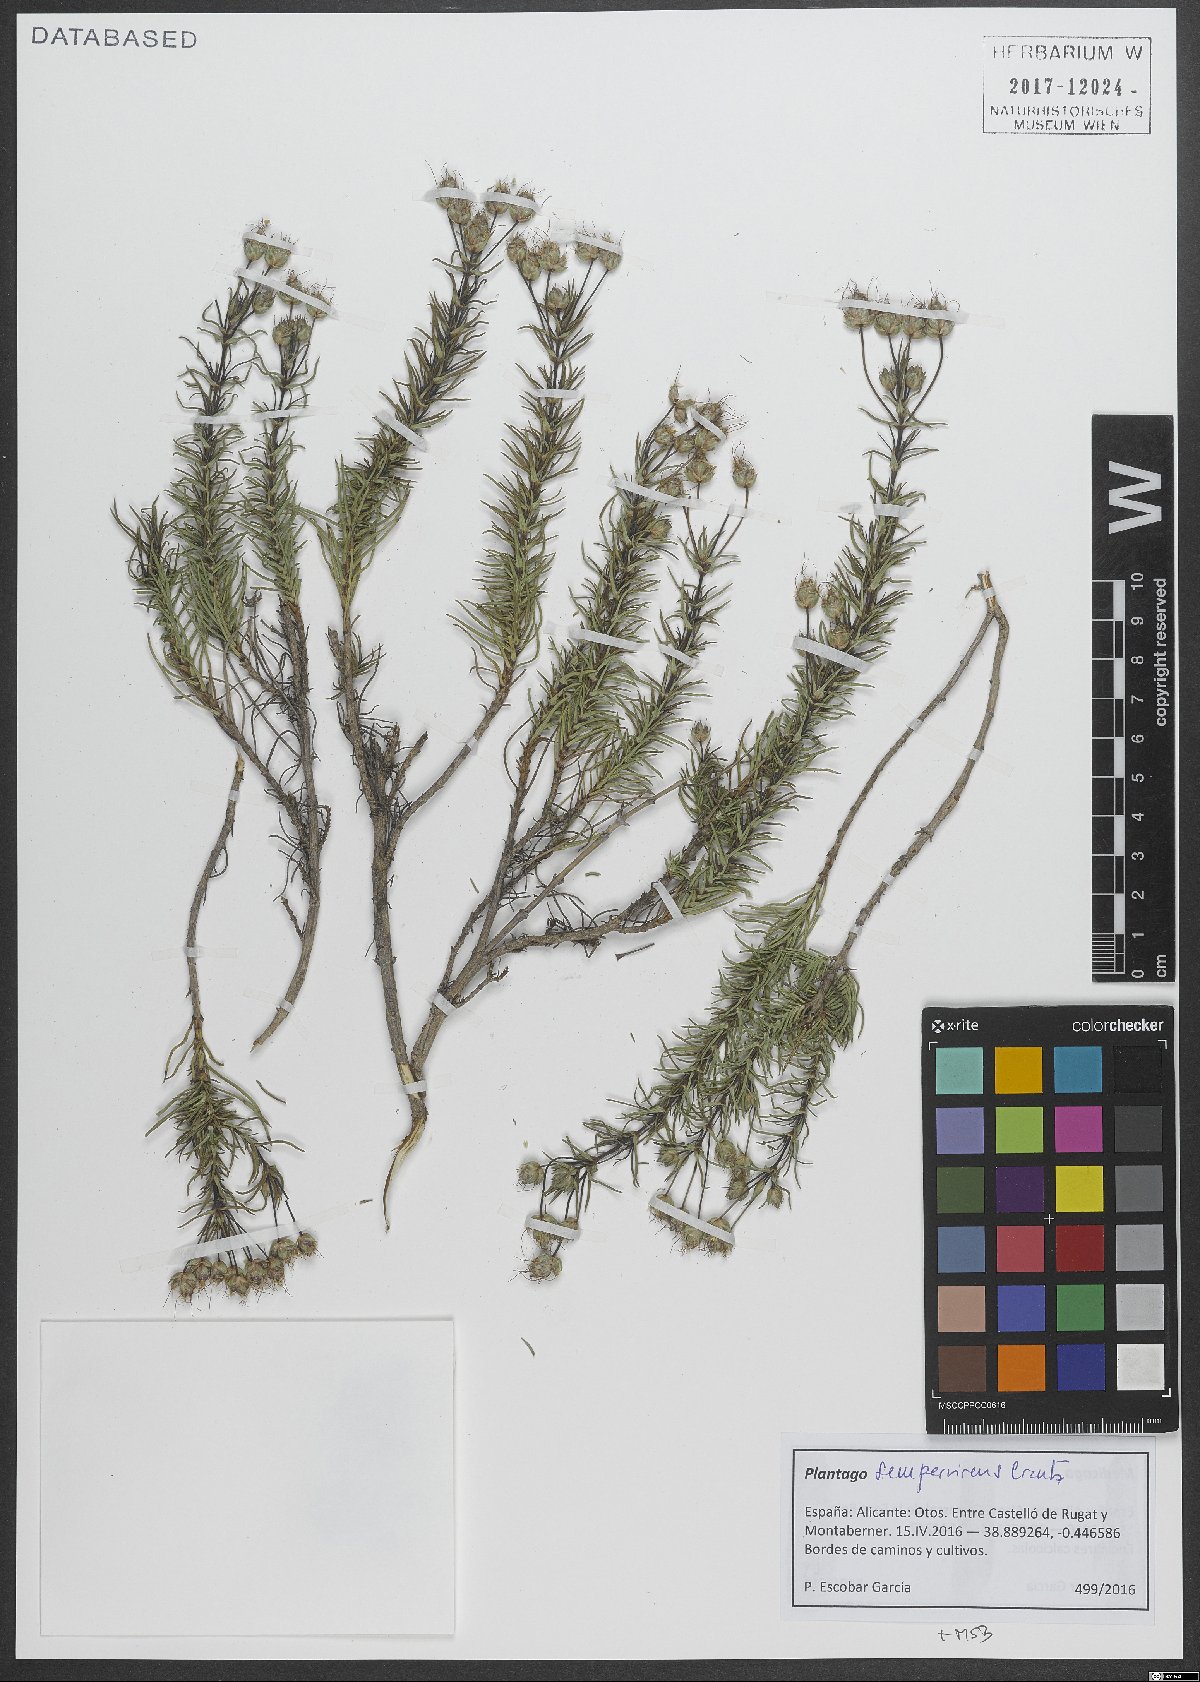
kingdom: Plantae
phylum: Tracheophyta
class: Magnoliopsida
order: Lamiales
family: Plantaginaceae
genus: Plantago
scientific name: Plantago sempervirens
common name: Shrubby plantain
